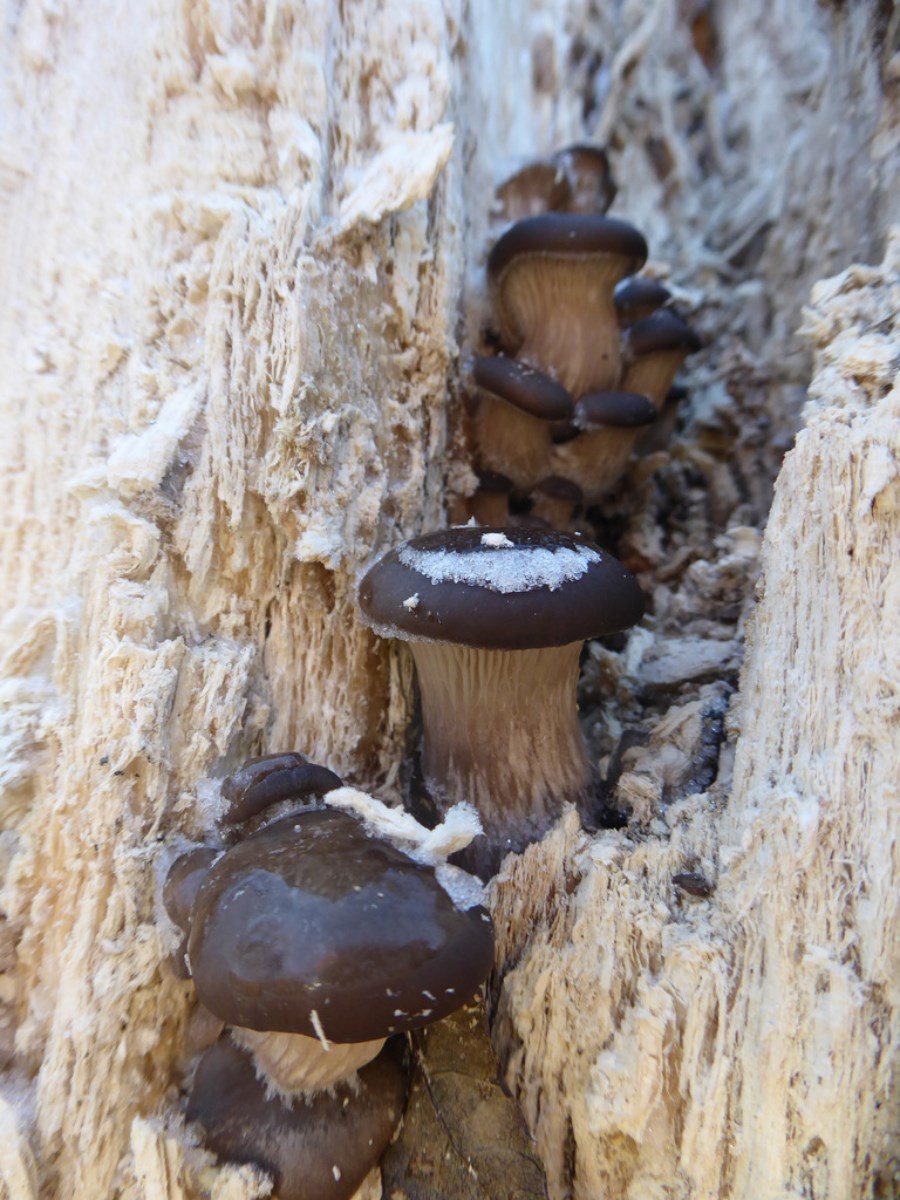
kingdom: Fungi
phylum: Basidiomycota
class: Agaricomycetes
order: Agaricales
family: Pleurotaceae
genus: Pleurotus
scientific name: Pleurotus ostreatus
